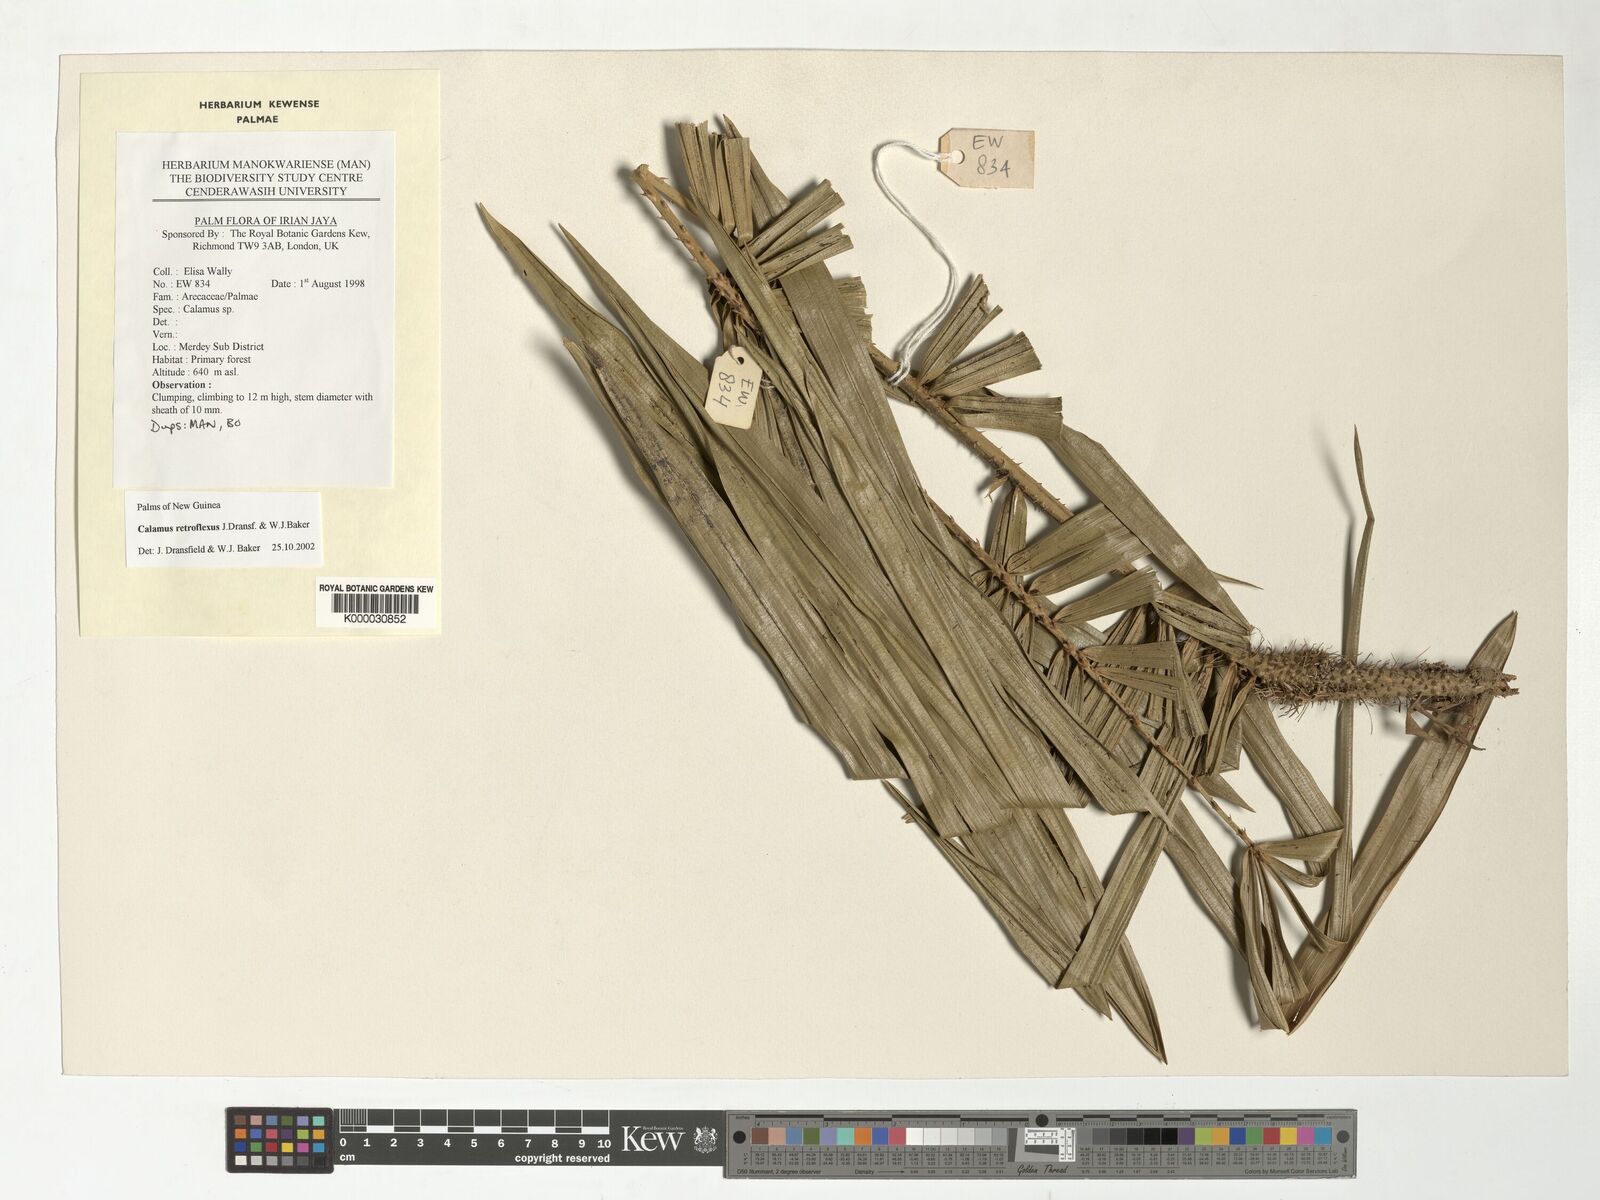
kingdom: Plantae
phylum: Tracheophyta
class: Liliopsida
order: Arecales
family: Arecaceae
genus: Calamus
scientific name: Calamus retroflexus
